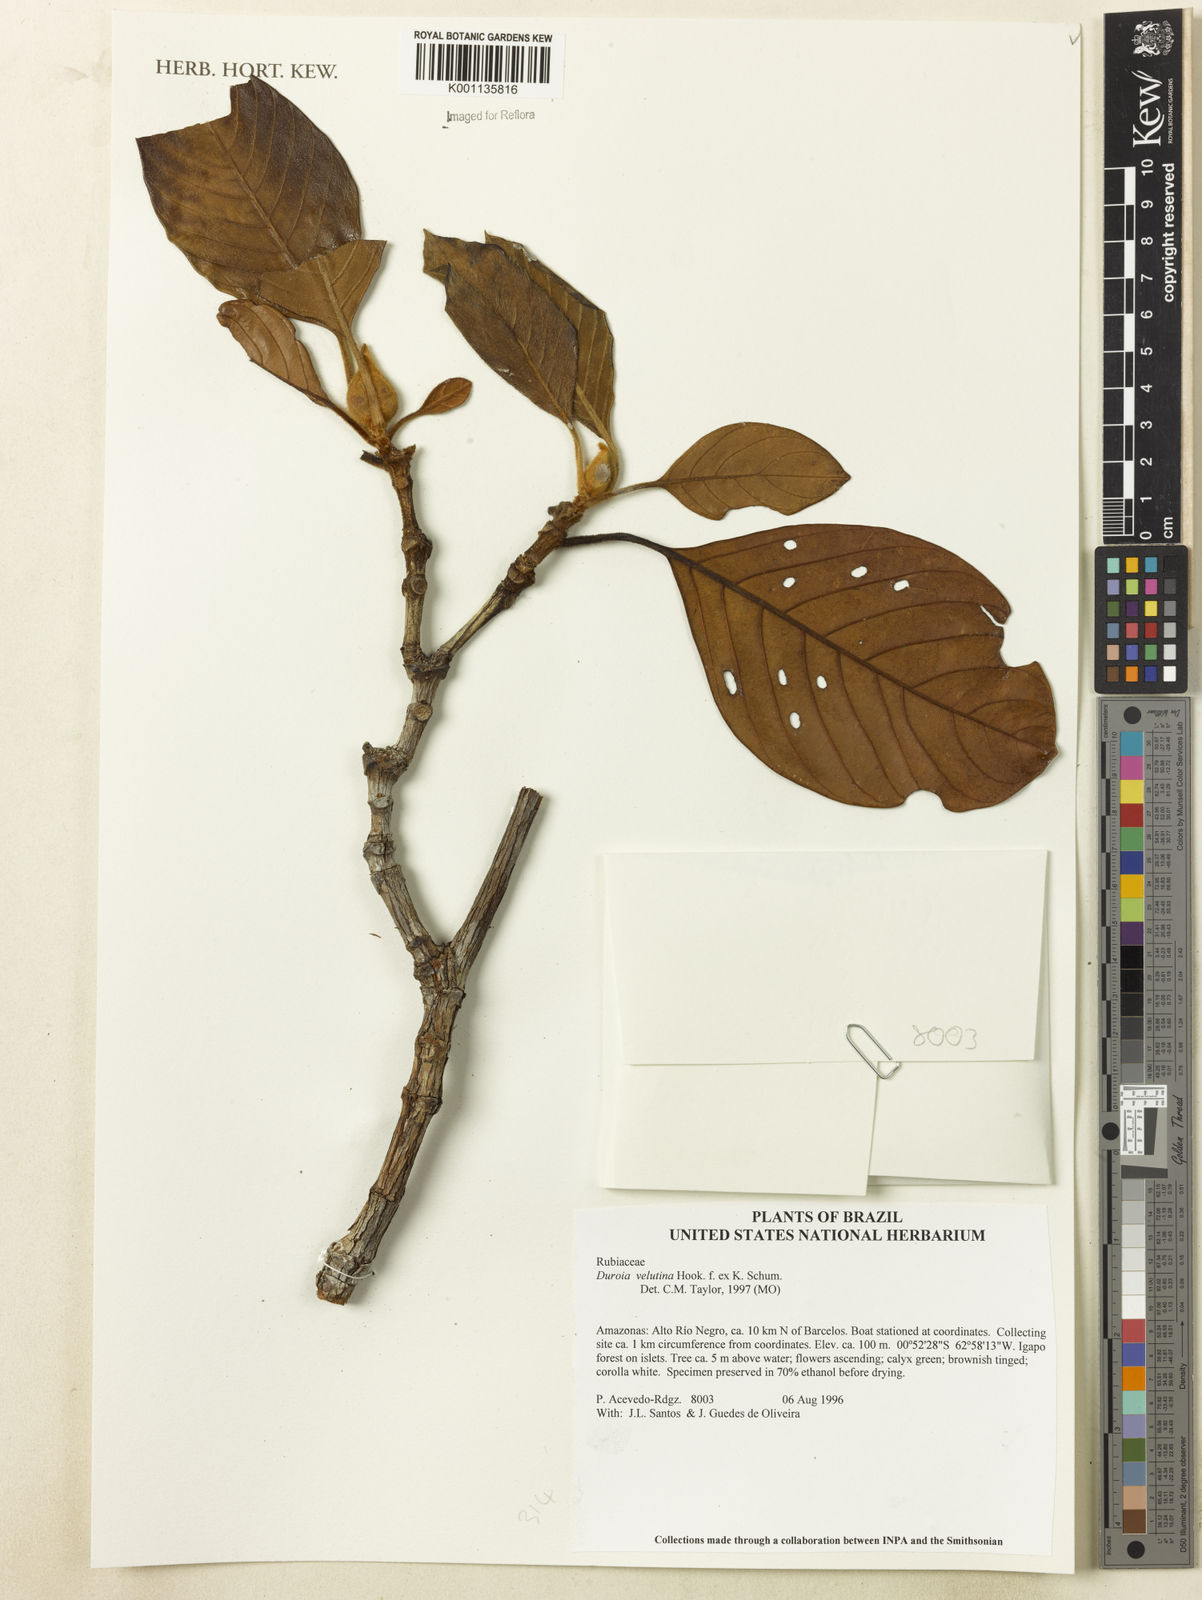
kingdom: Plantae
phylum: Tracheophyta
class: Magnoliopsida
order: Gentianales
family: Rubiaceae
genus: Duroia
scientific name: Duroia velutina
